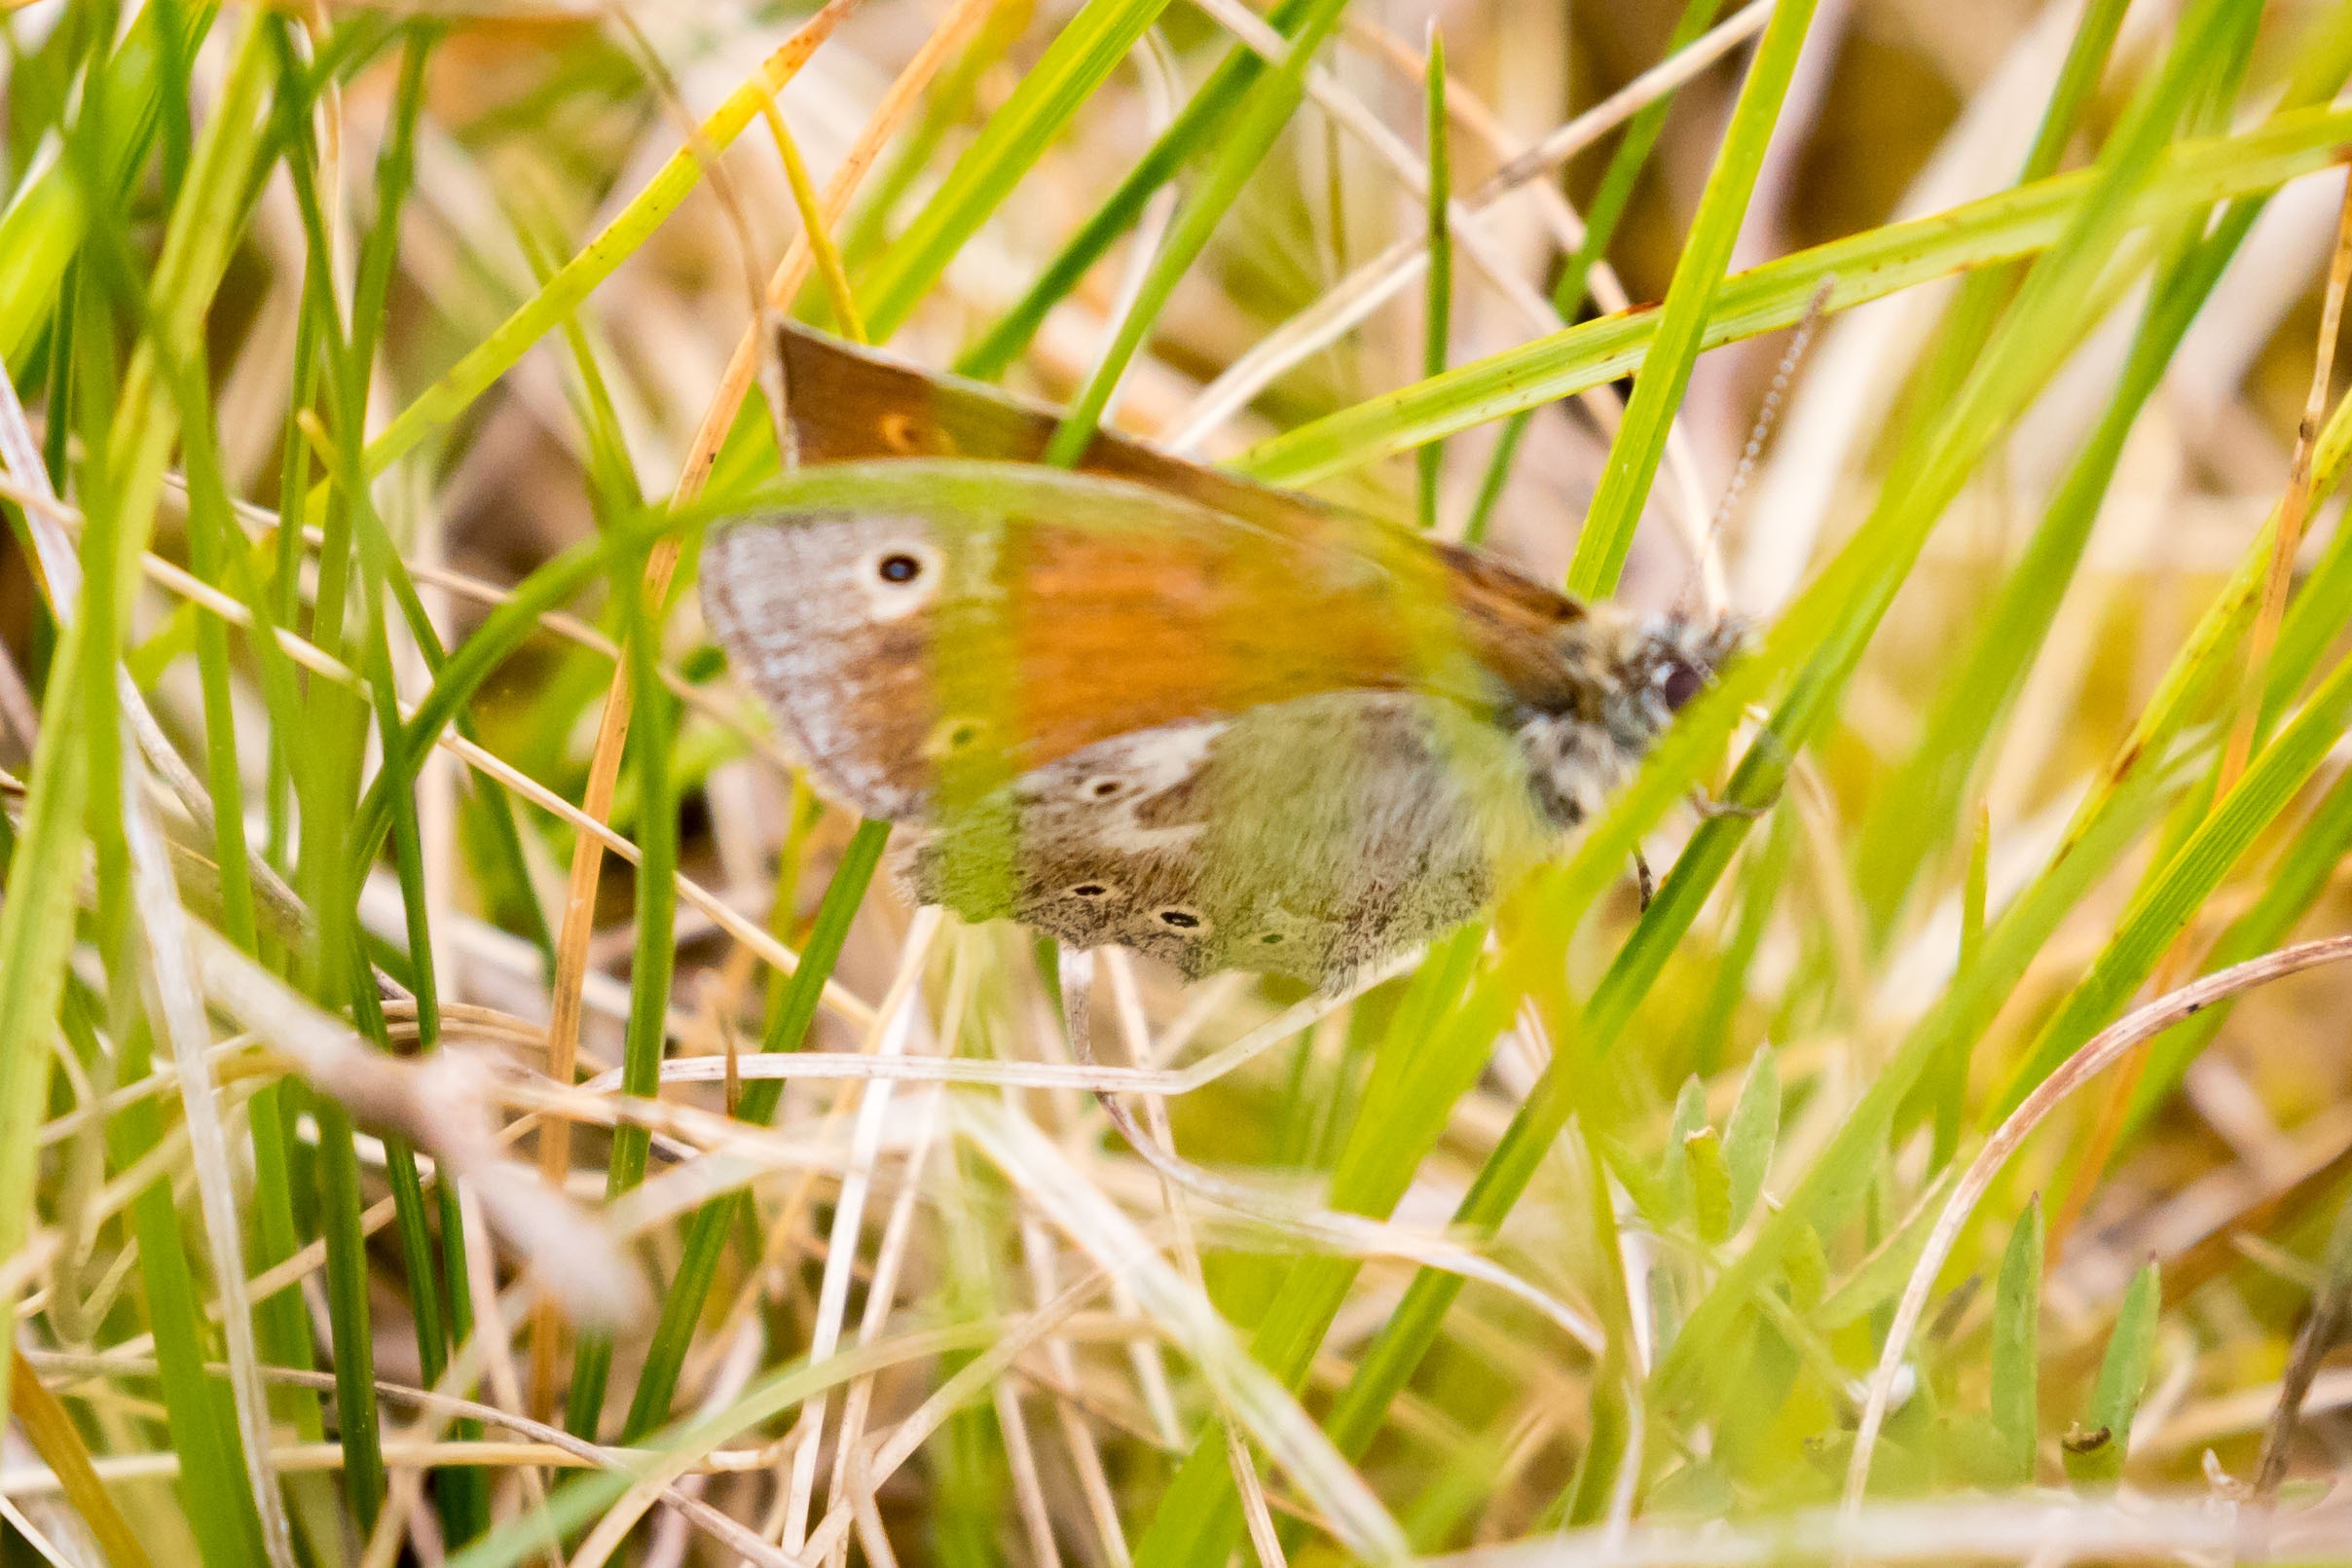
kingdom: Animalia
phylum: Arthropoda
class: Insecta
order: Lepidoptera
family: Nymphalidae
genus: Coenonympha
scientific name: Coenonympha tullia
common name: Moserandøje
